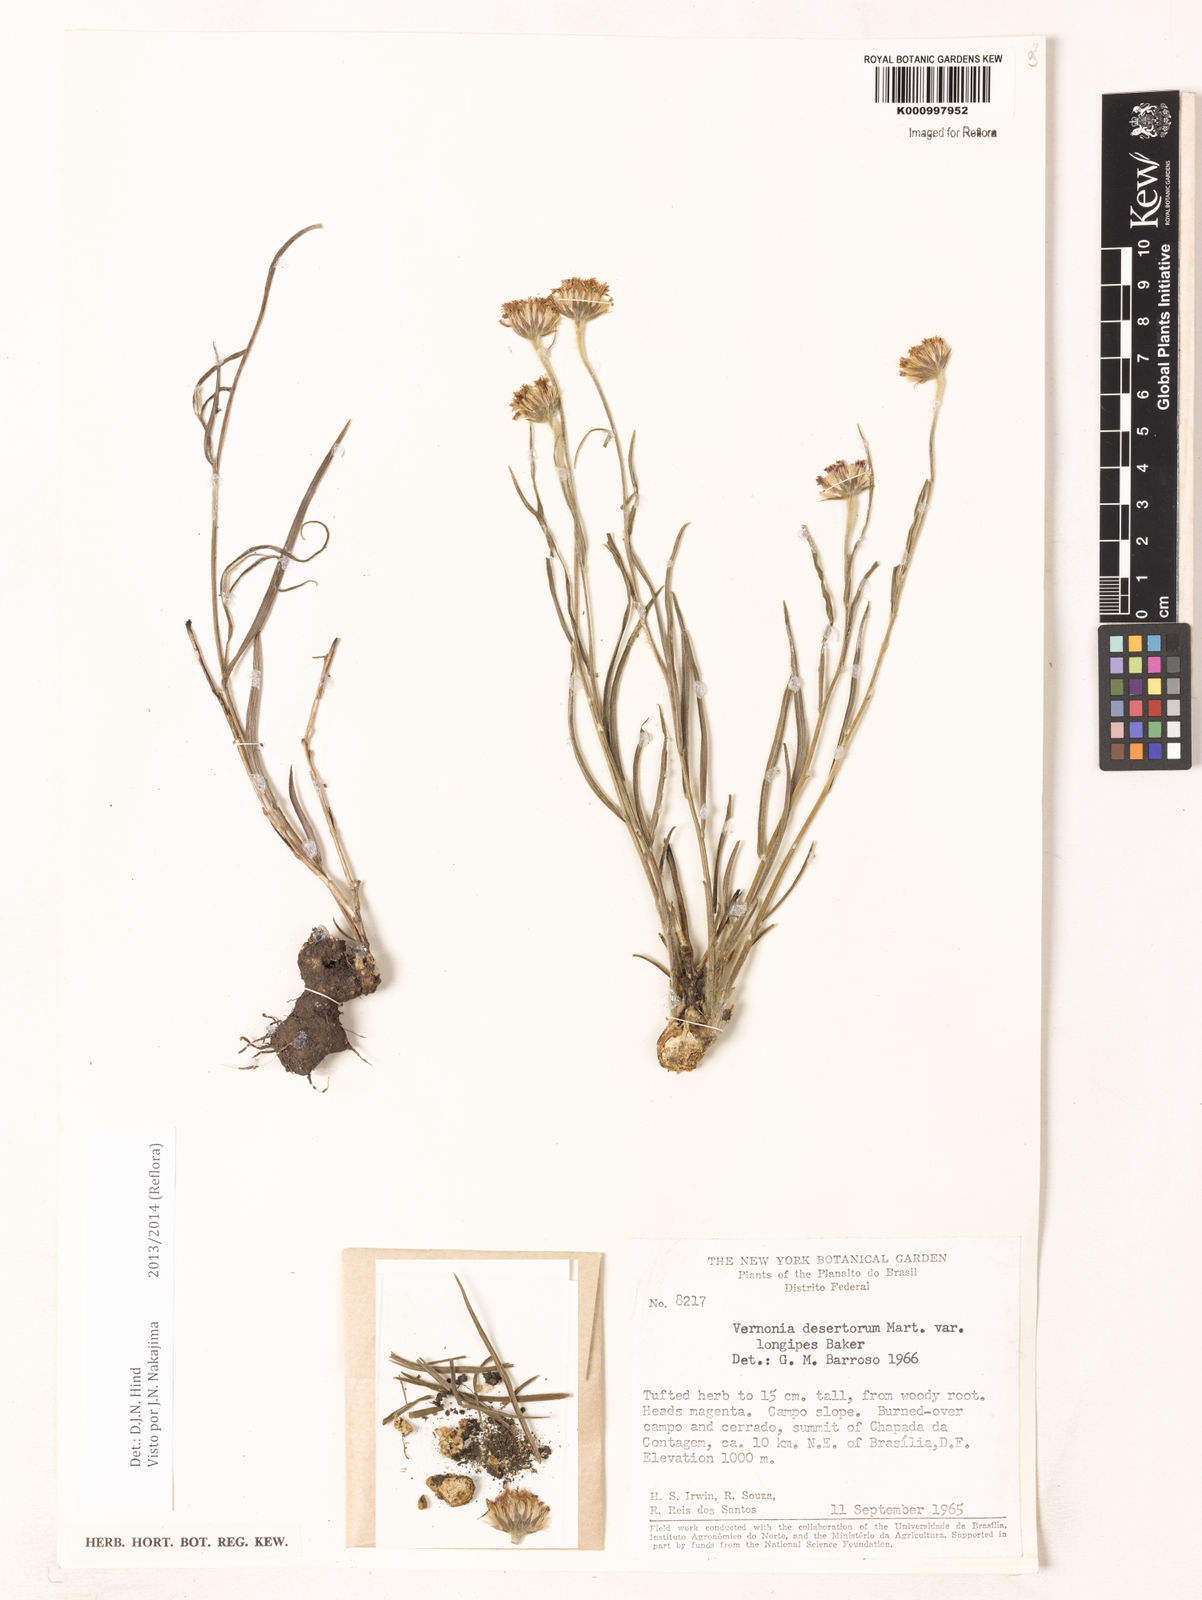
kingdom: Plantae
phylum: Tracheophyta
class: Magnoliopsida
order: Asterales
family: Asteraceae
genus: Chrysolaena
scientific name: Chrysolaena desertorum
